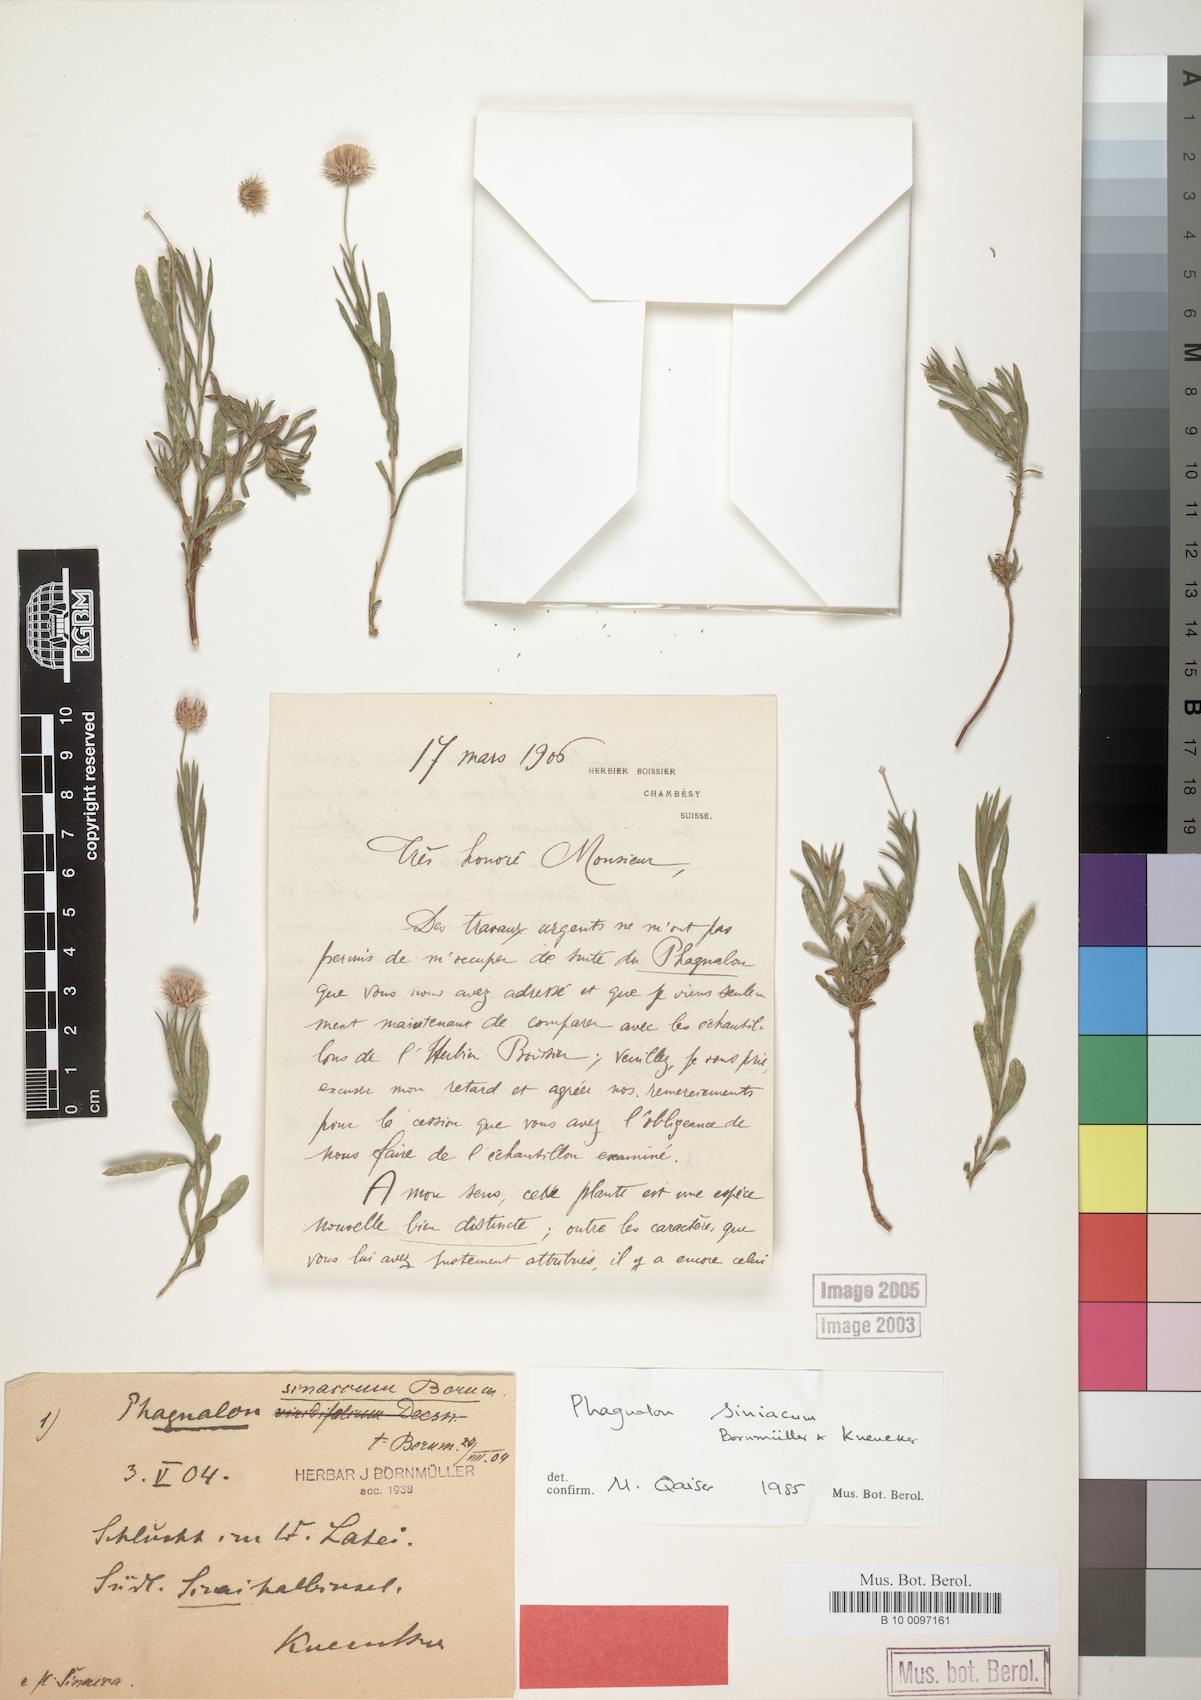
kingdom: Plantae
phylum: Tracheophyta
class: Magnoliopsida
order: Asterales
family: Asteraceae
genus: Phagnalon
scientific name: Phagnalon sinaicum
